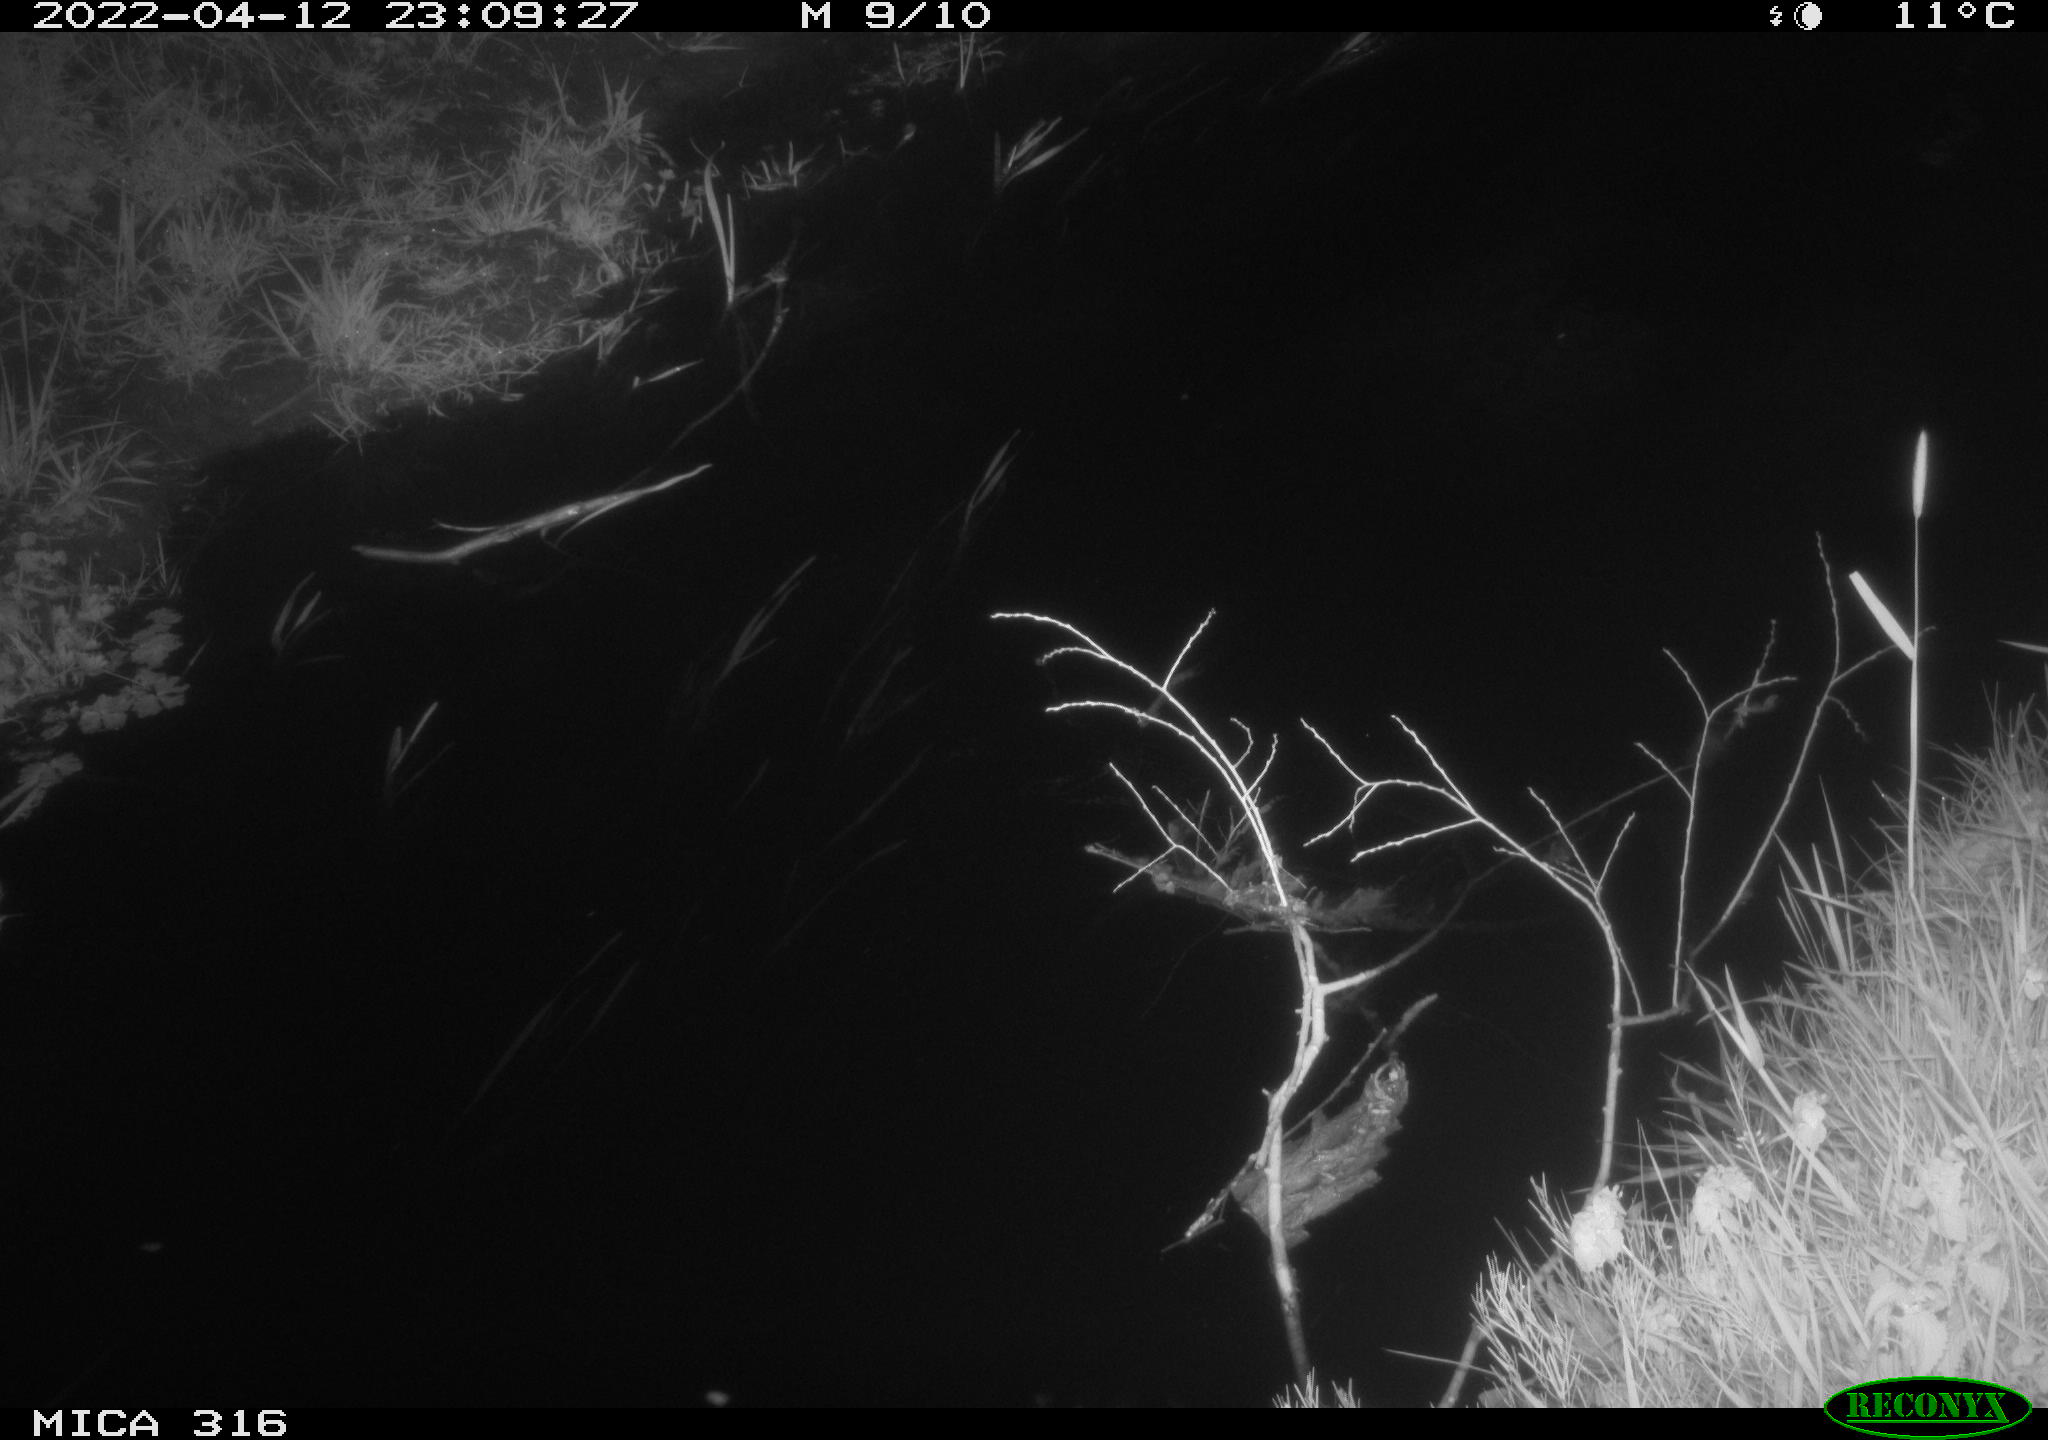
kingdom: Animalia
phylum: Chordata
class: Aves
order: Pelecaniformes
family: Ardeidae
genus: Ardea
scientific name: Ardea cinerea
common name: Grey heron
